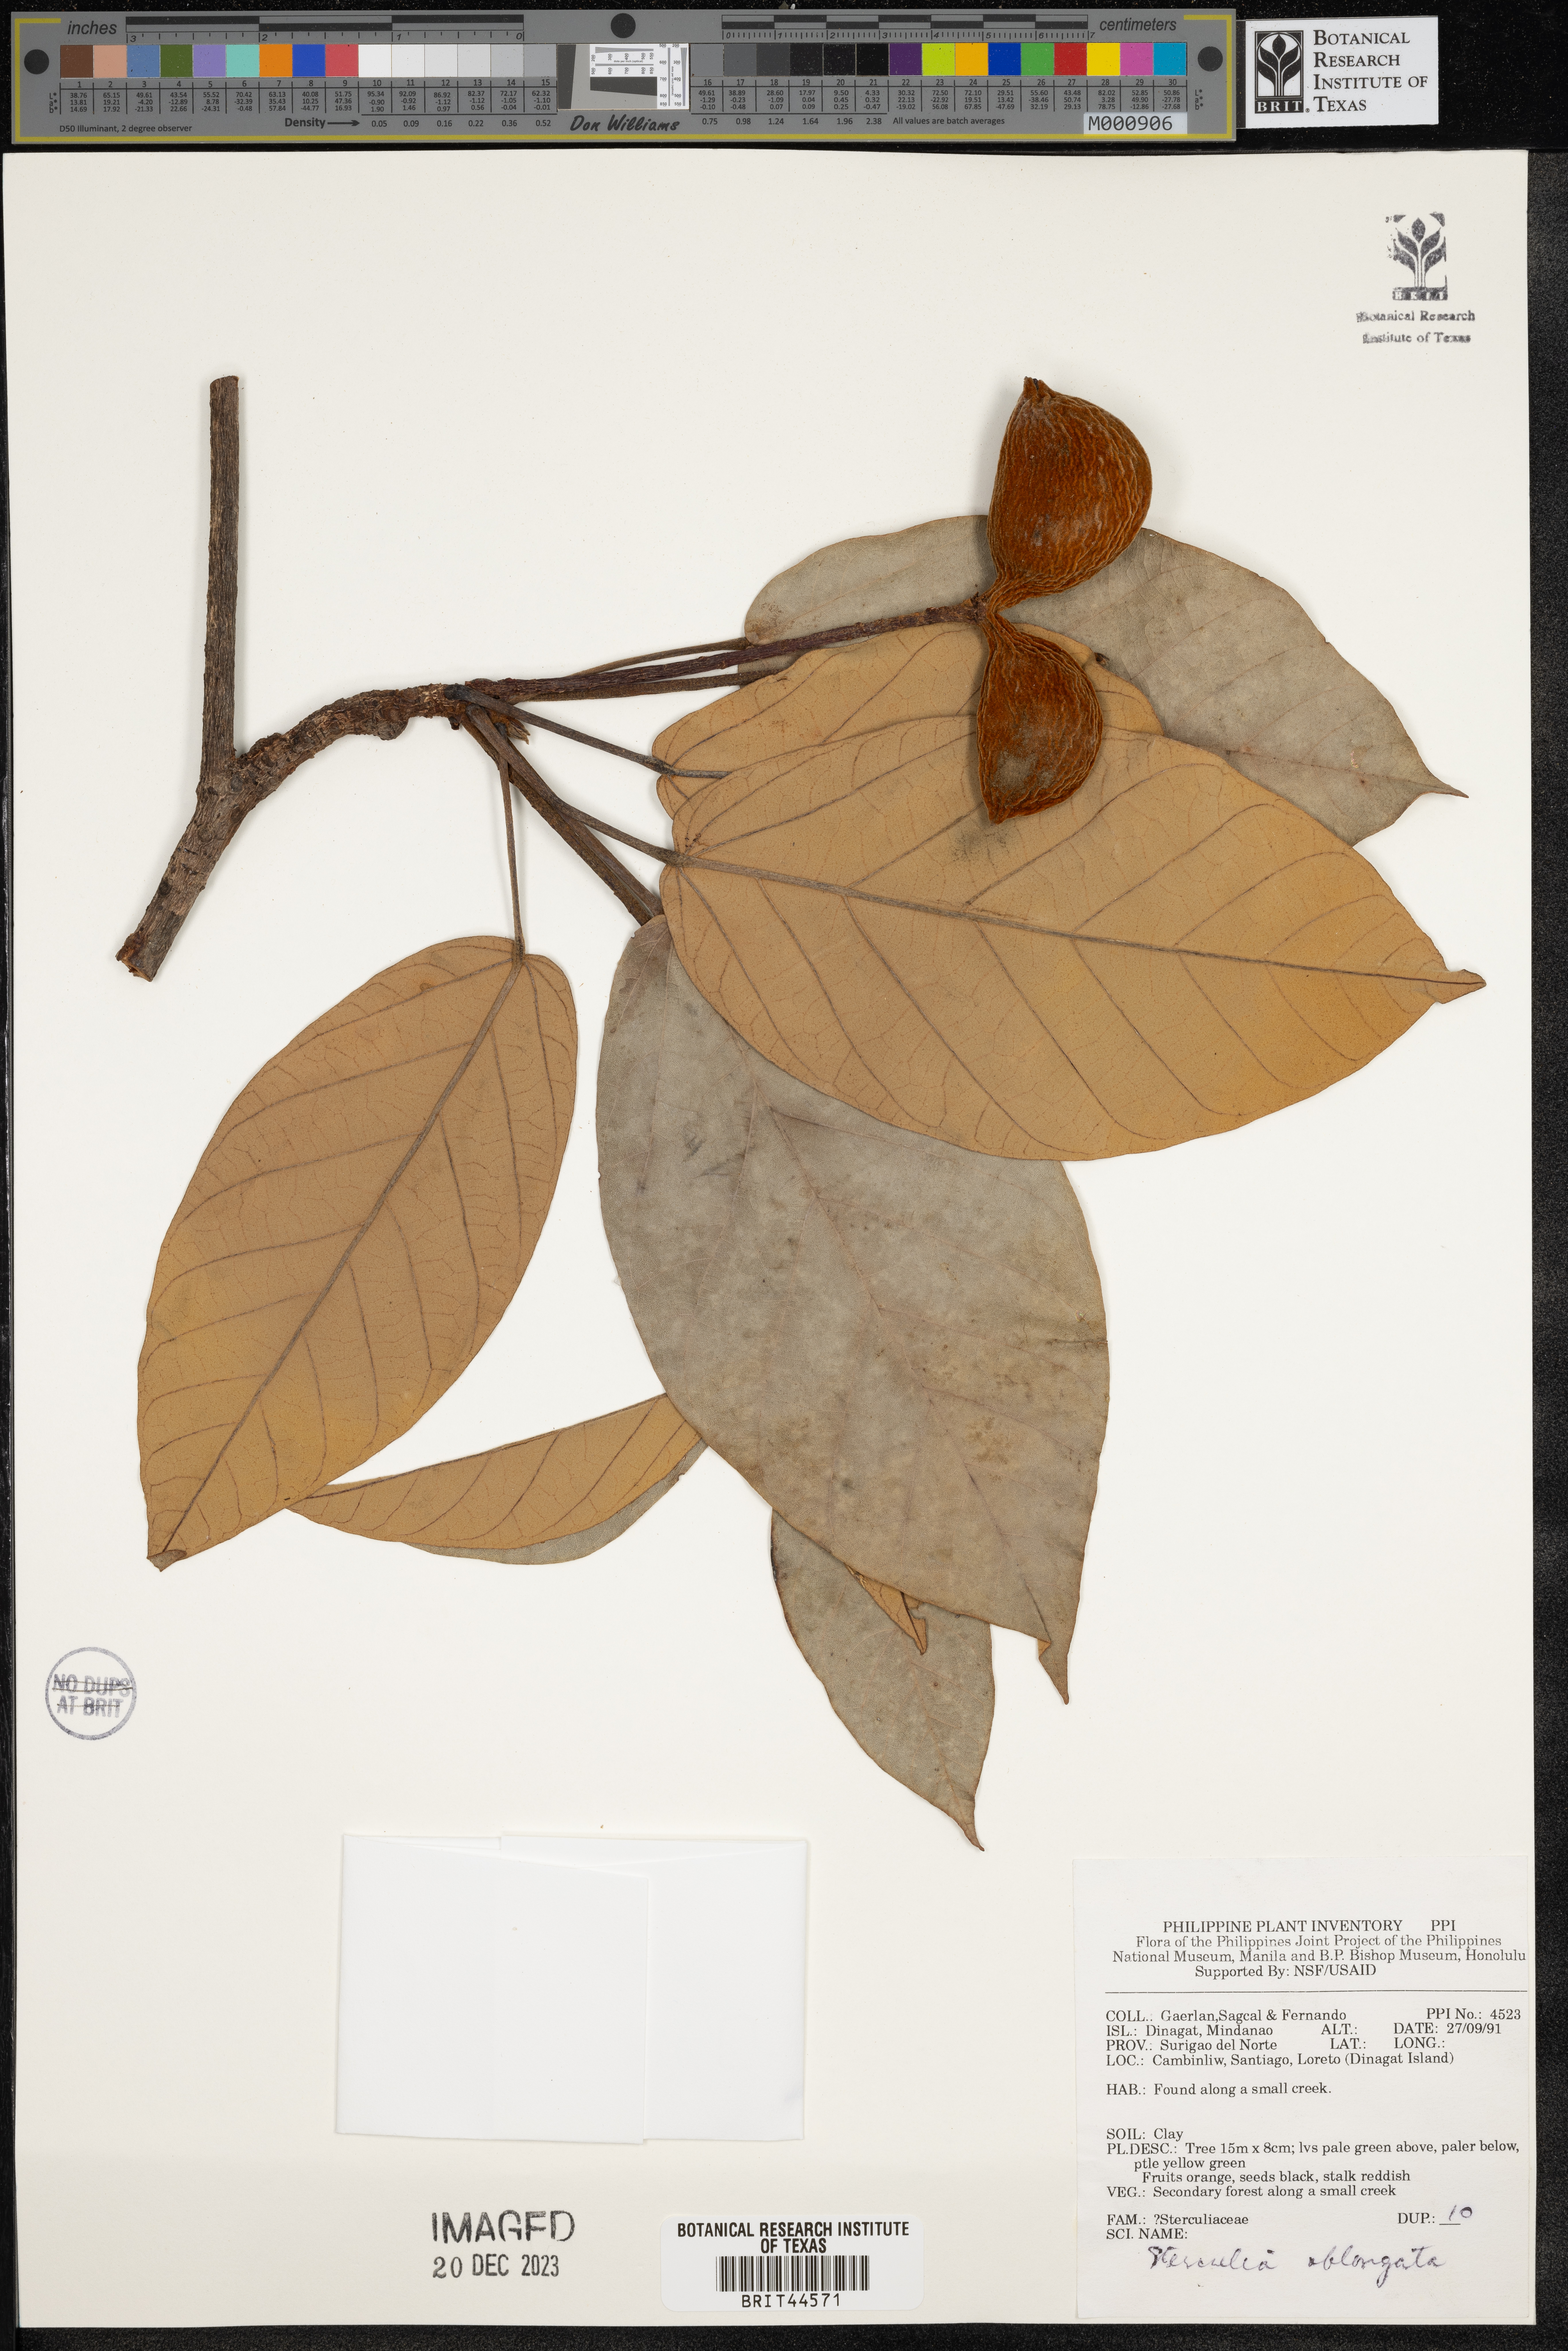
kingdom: Plantae
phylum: Tracheophyta
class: Magnoliopsida
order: Malvales
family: Malvaceae
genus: Sterculia
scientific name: Sterculia oblongata
